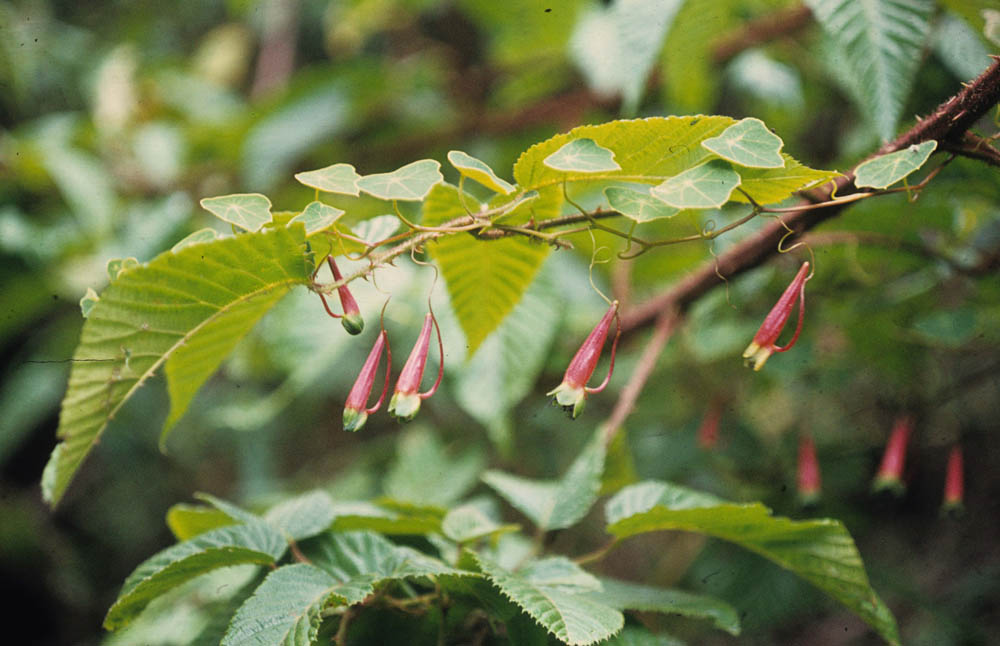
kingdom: Plantae
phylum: Tracheophyta
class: Magnoliopsida
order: Brassicales
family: Tropaeolaceae
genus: Tropaeolum
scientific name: Tropaeolum pubescens
